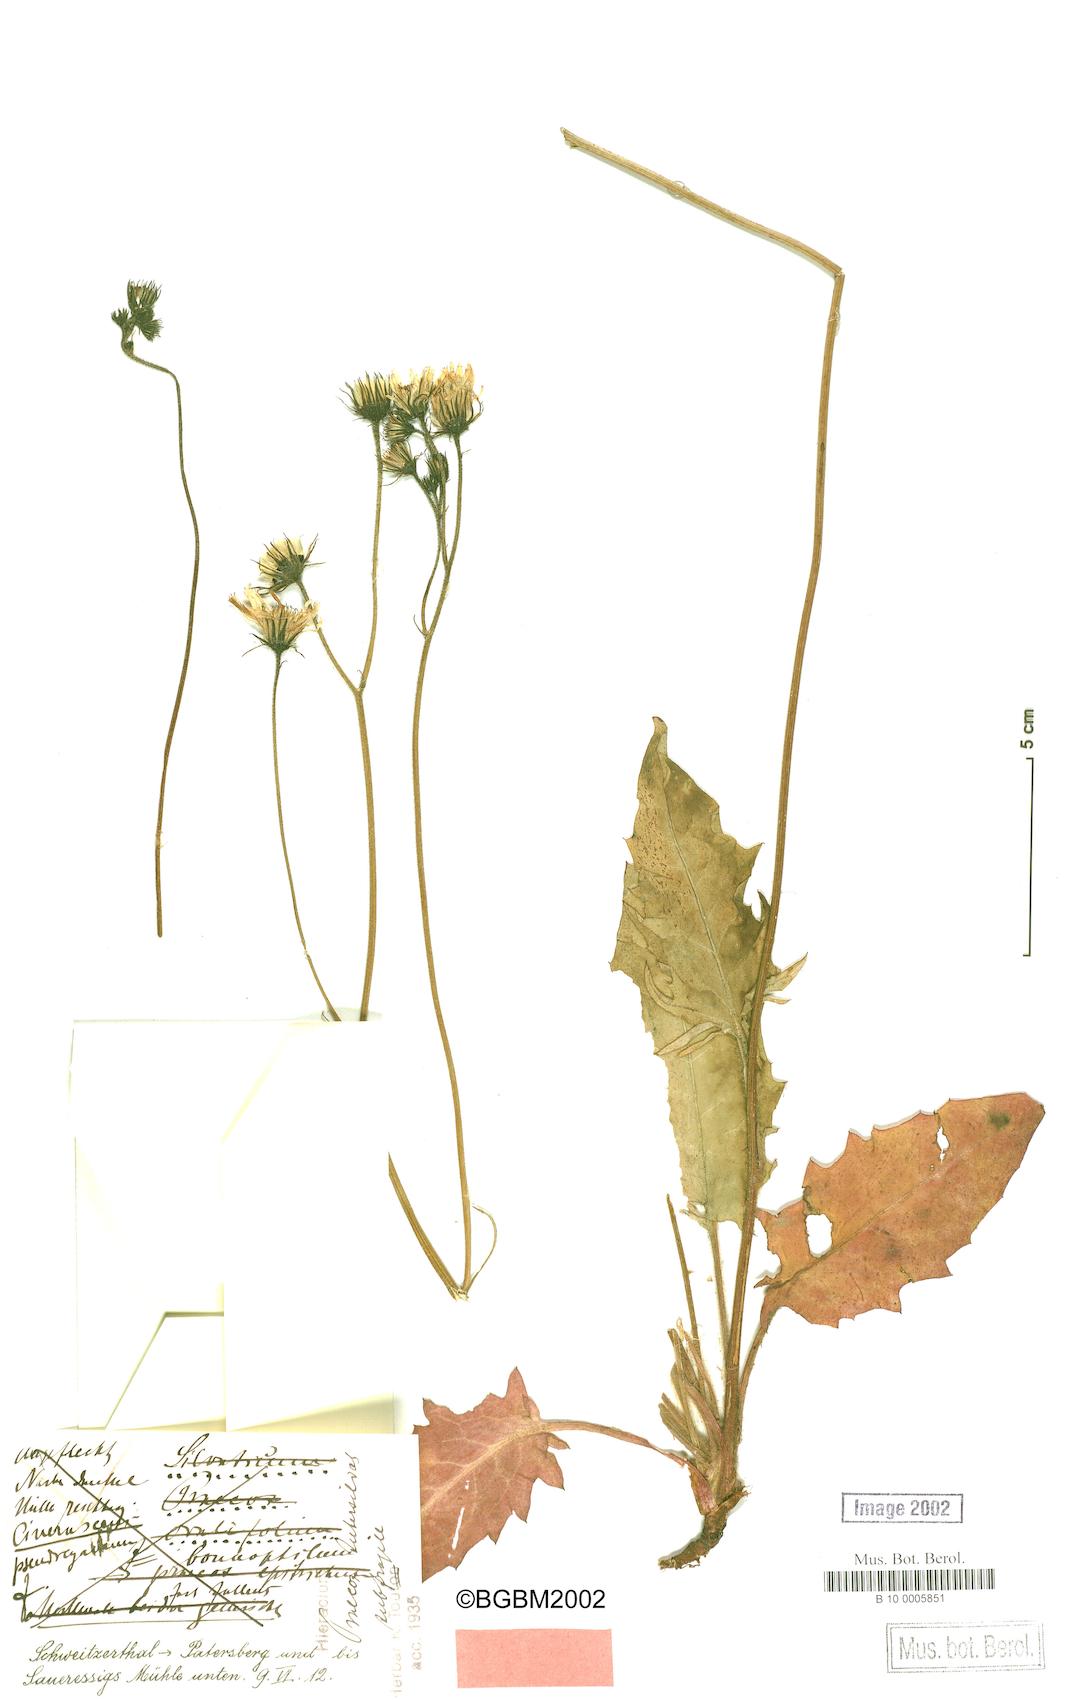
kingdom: Plantae
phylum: Tracheophyta
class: Magnoliopsida
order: Asterales
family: Asteraceae
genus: Hieracium
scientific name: Hieracium glaucinum
